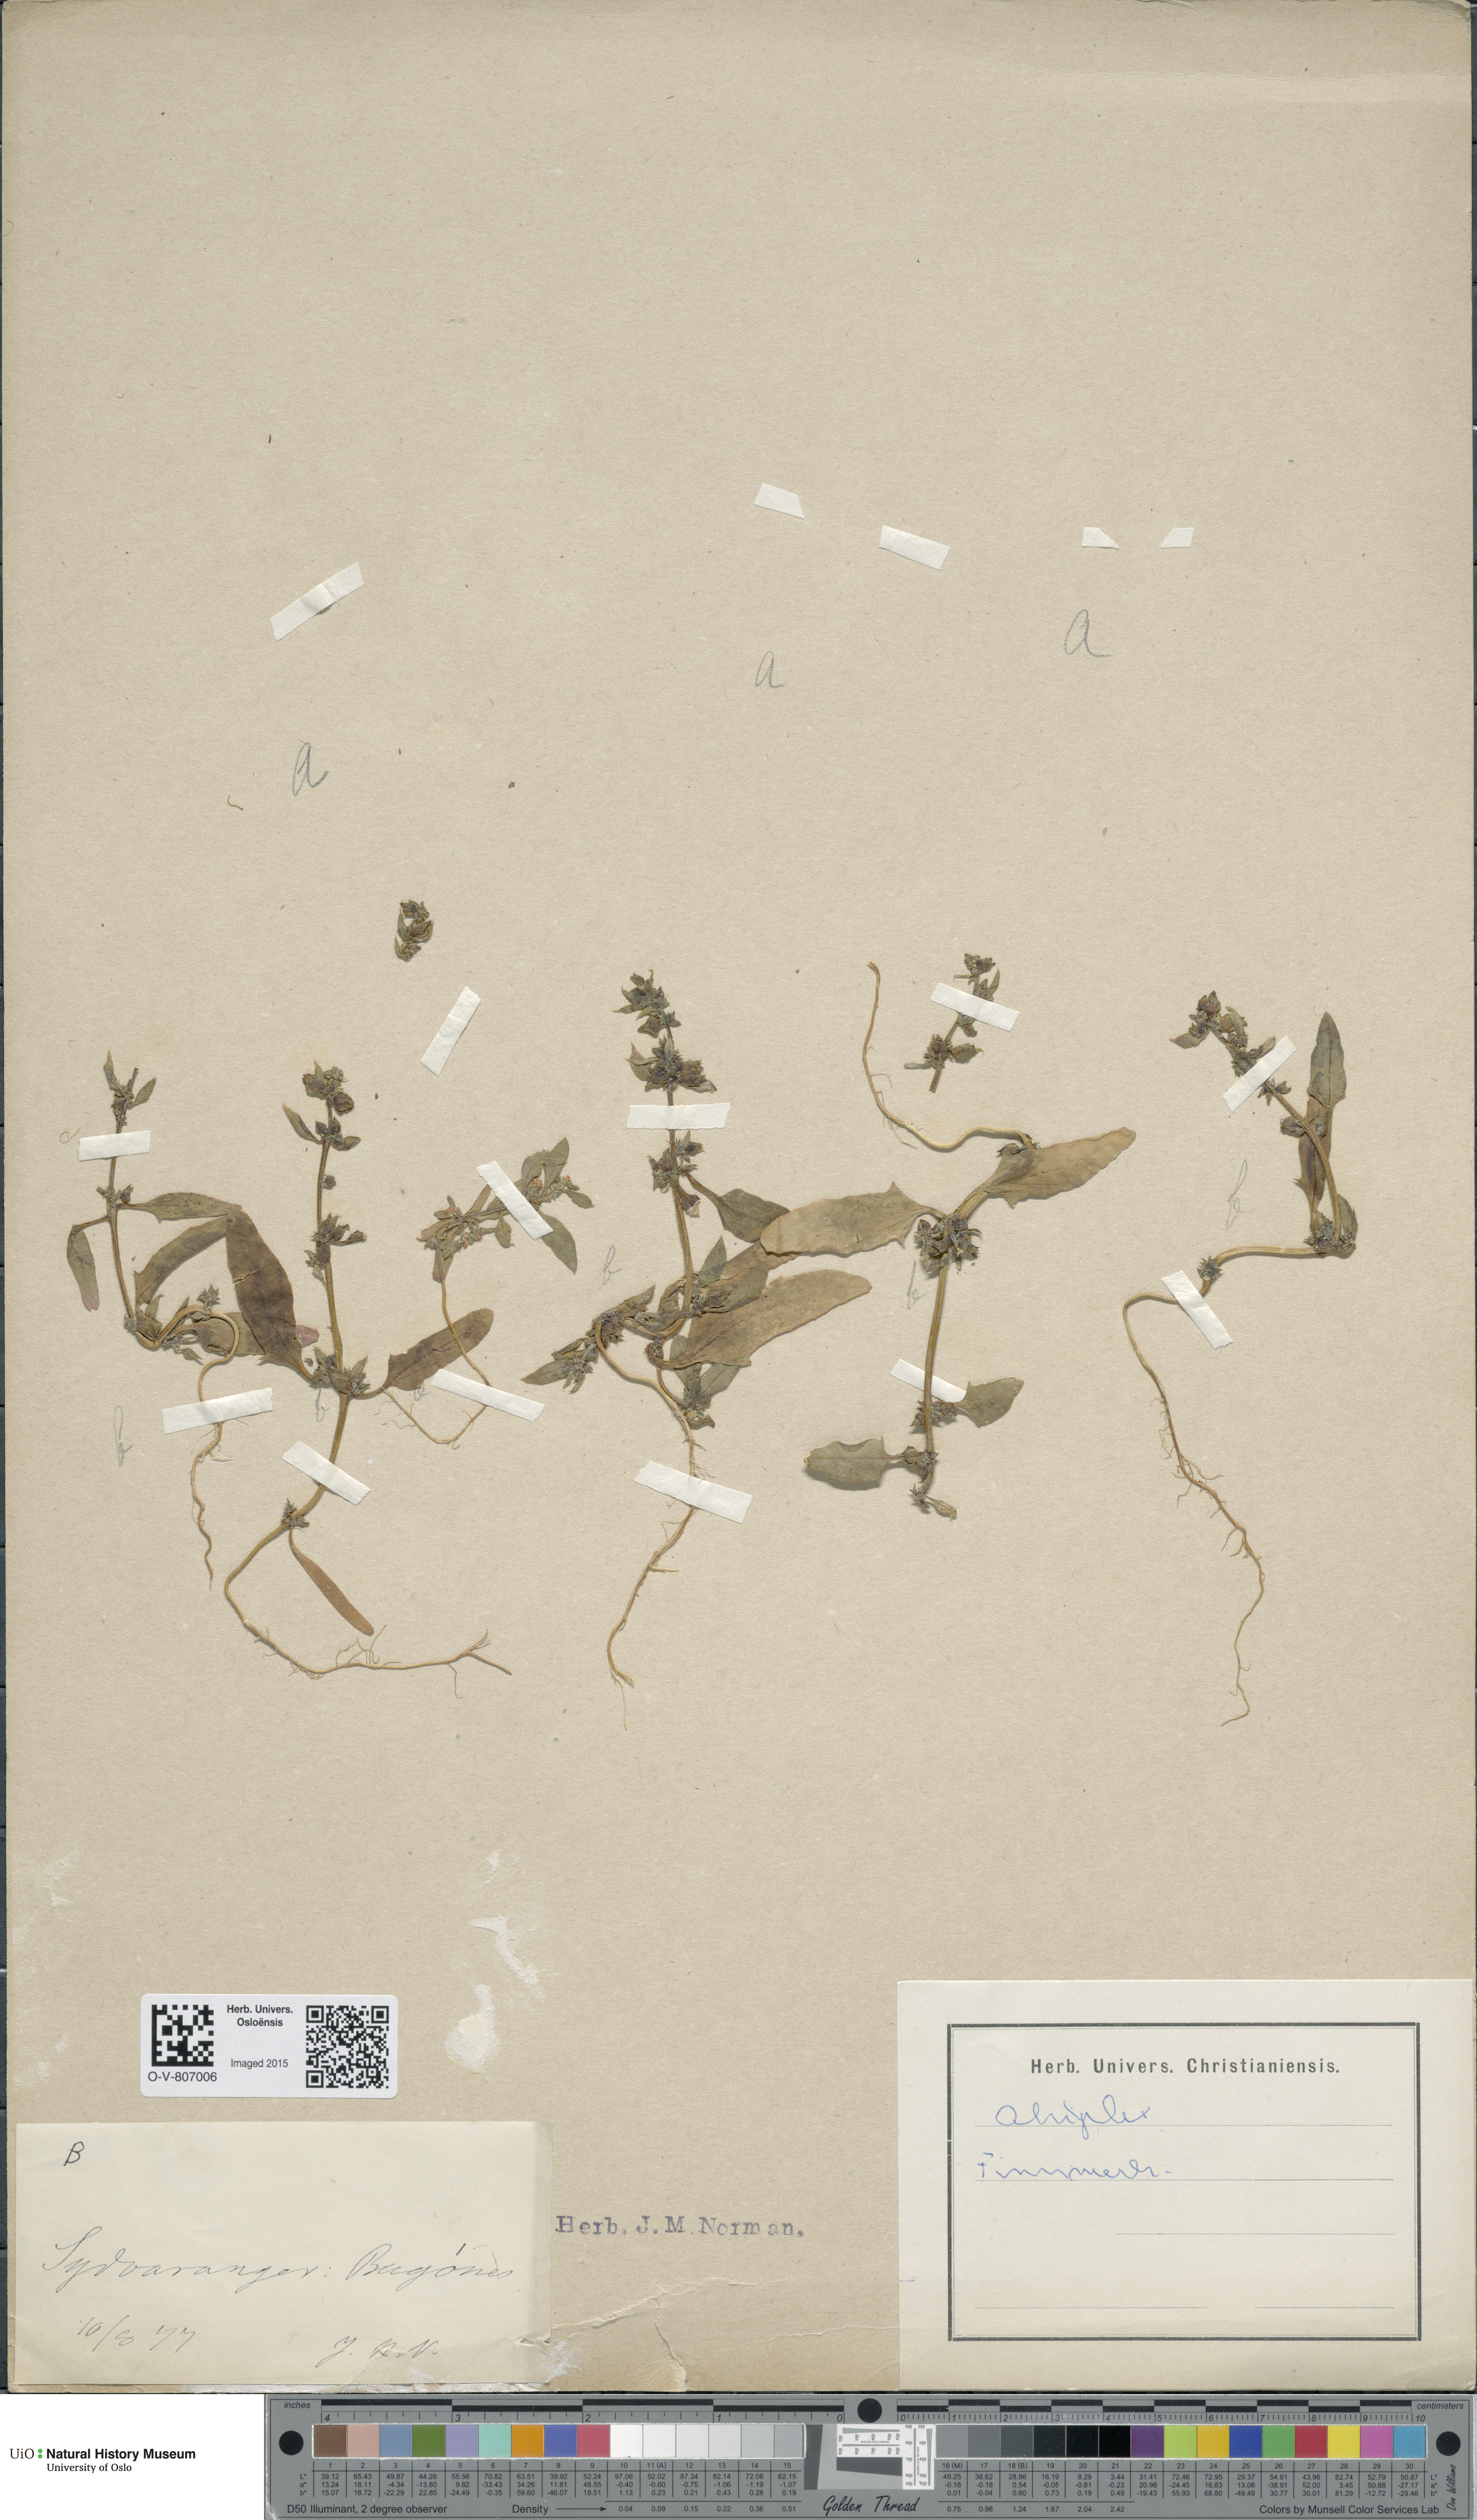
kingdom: Plantae
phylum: Tracheophyta
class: Magnoliopsida
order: Caryophyllales
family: Amaranthaceae
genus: Atriplex
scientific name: Atriplex
